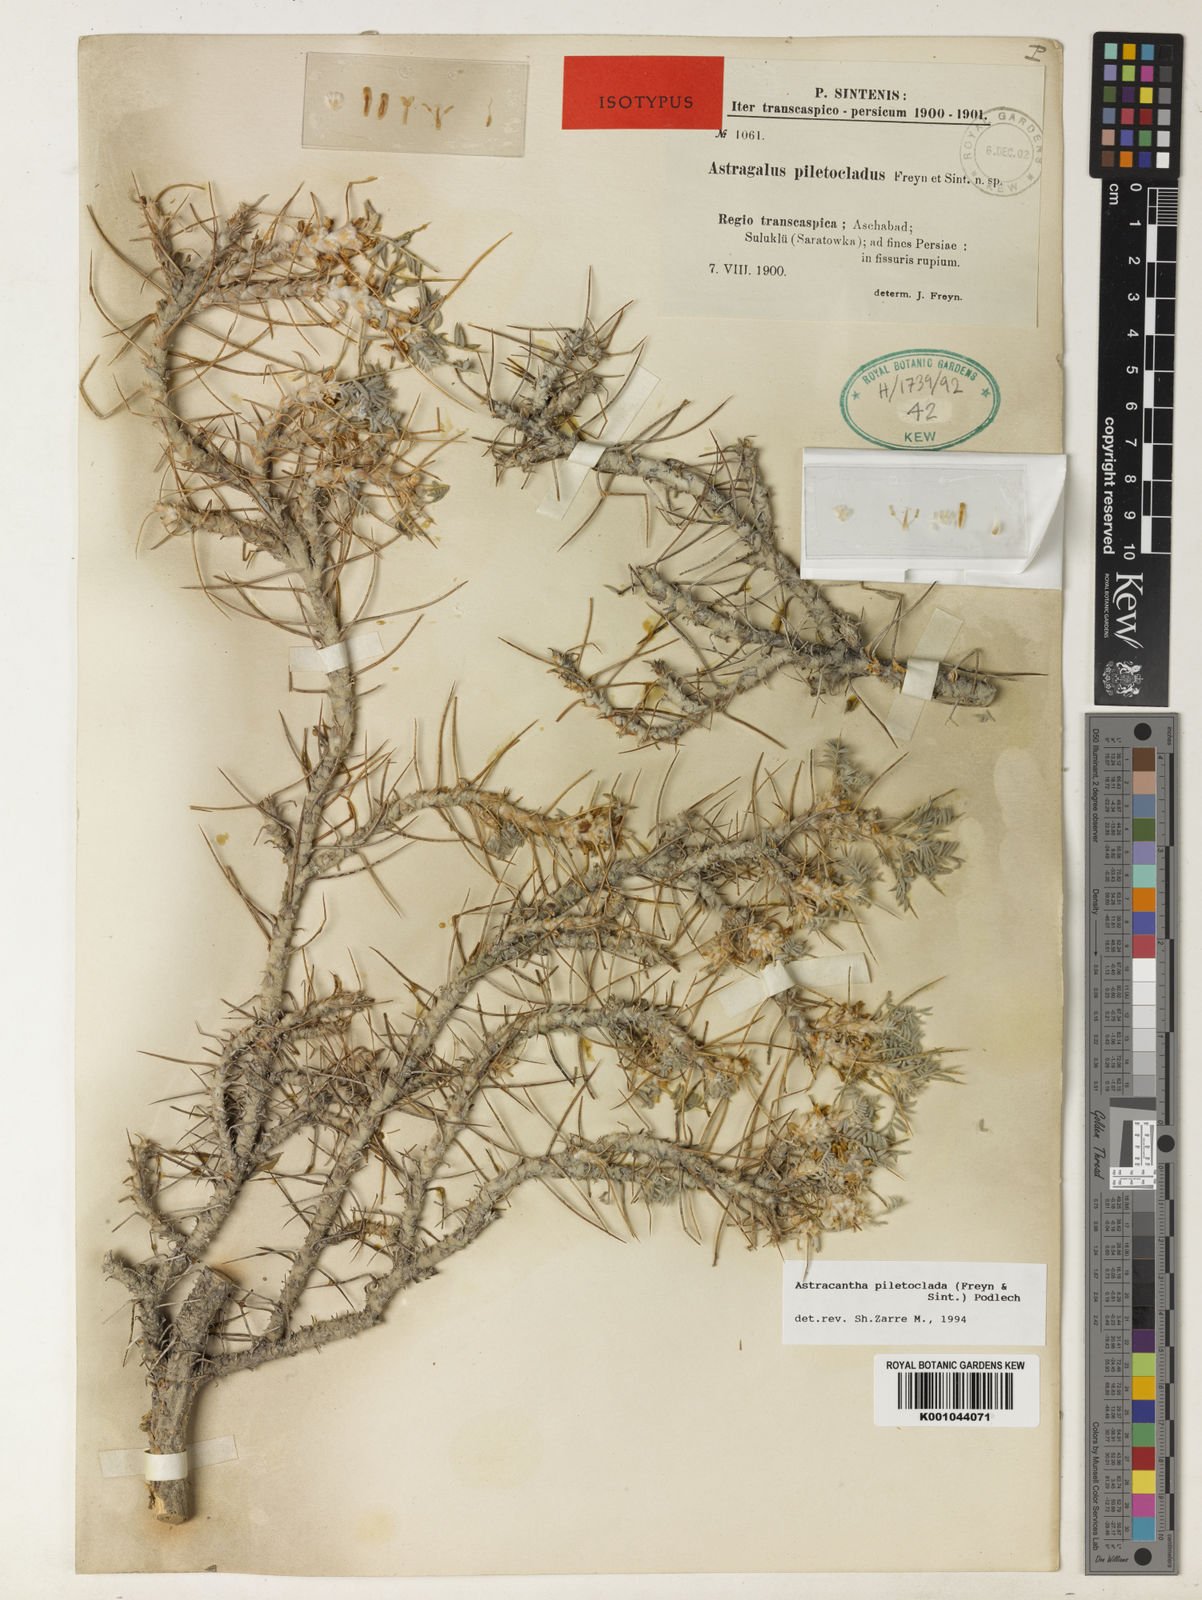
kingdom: Plantae
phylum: Tracheophyta
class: Magnoliopsida
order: Fabales
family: Fabaceae
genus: Astragalus
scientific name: Astragalus verus
